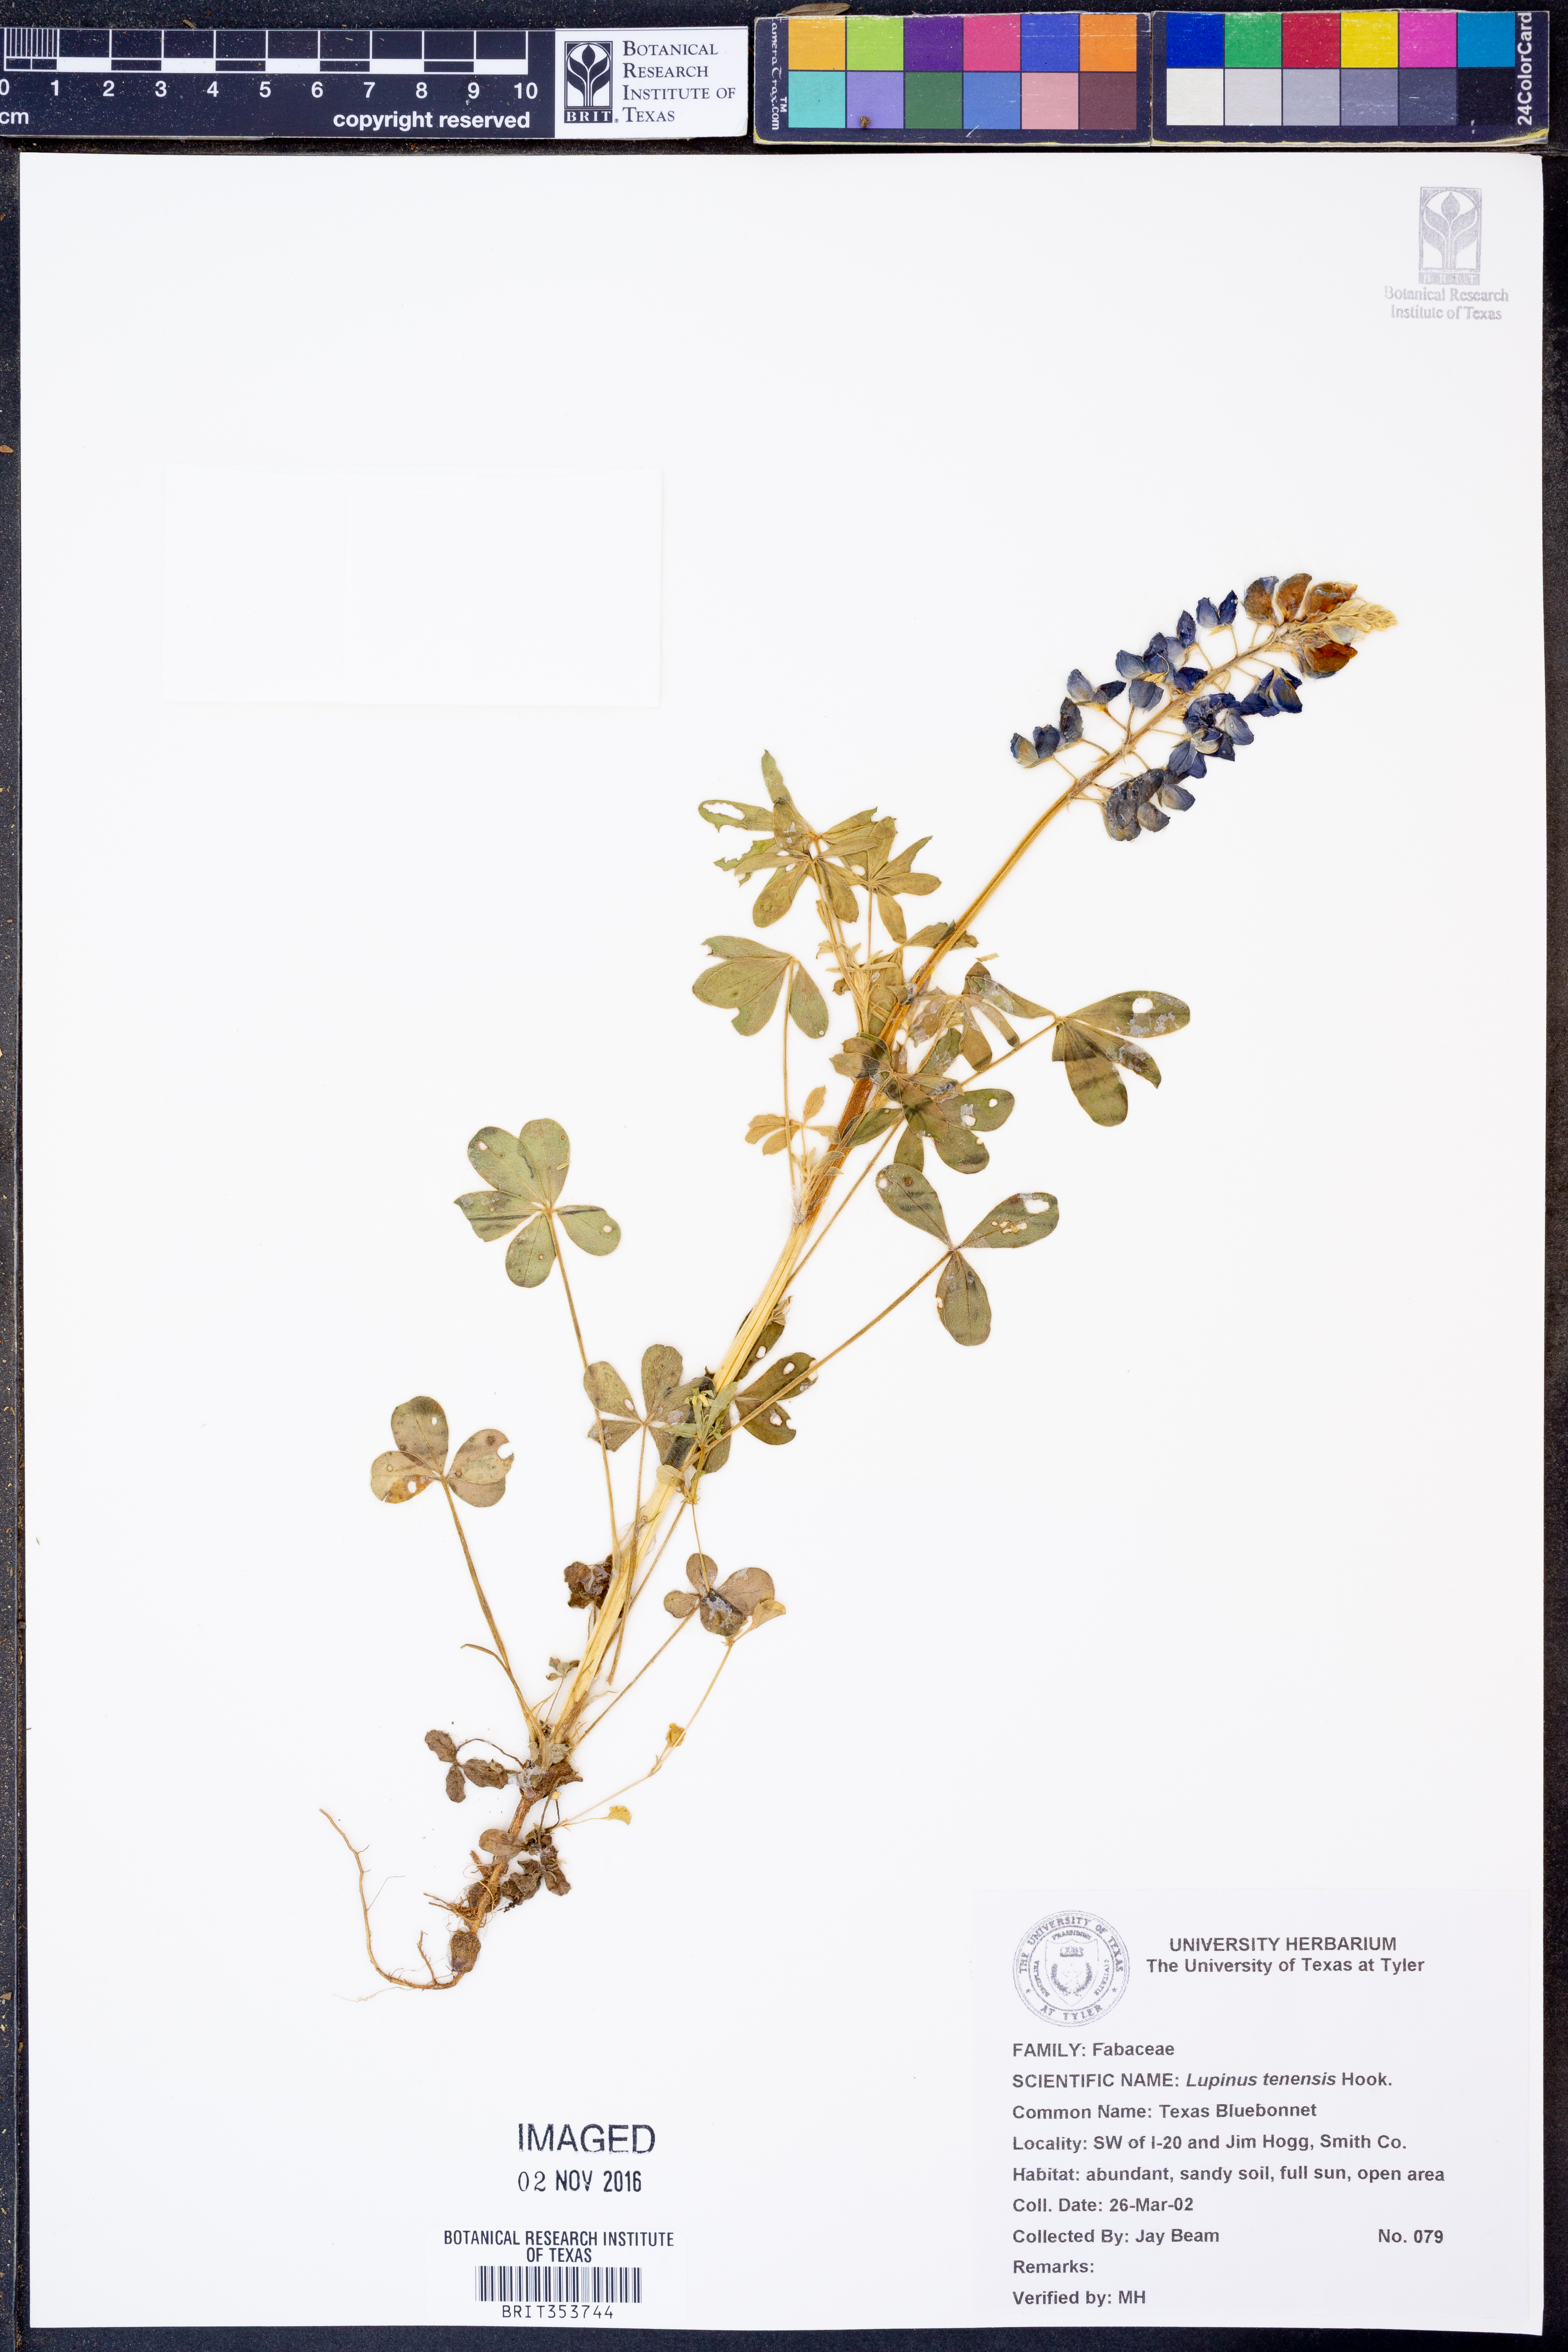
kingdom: Plantae
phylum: Tracheophyta
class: Magnoliopsida
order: Fabales
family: Fabaceae
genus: Lupinus
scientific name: Lupinus texensis
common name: Texas bluebonnet
